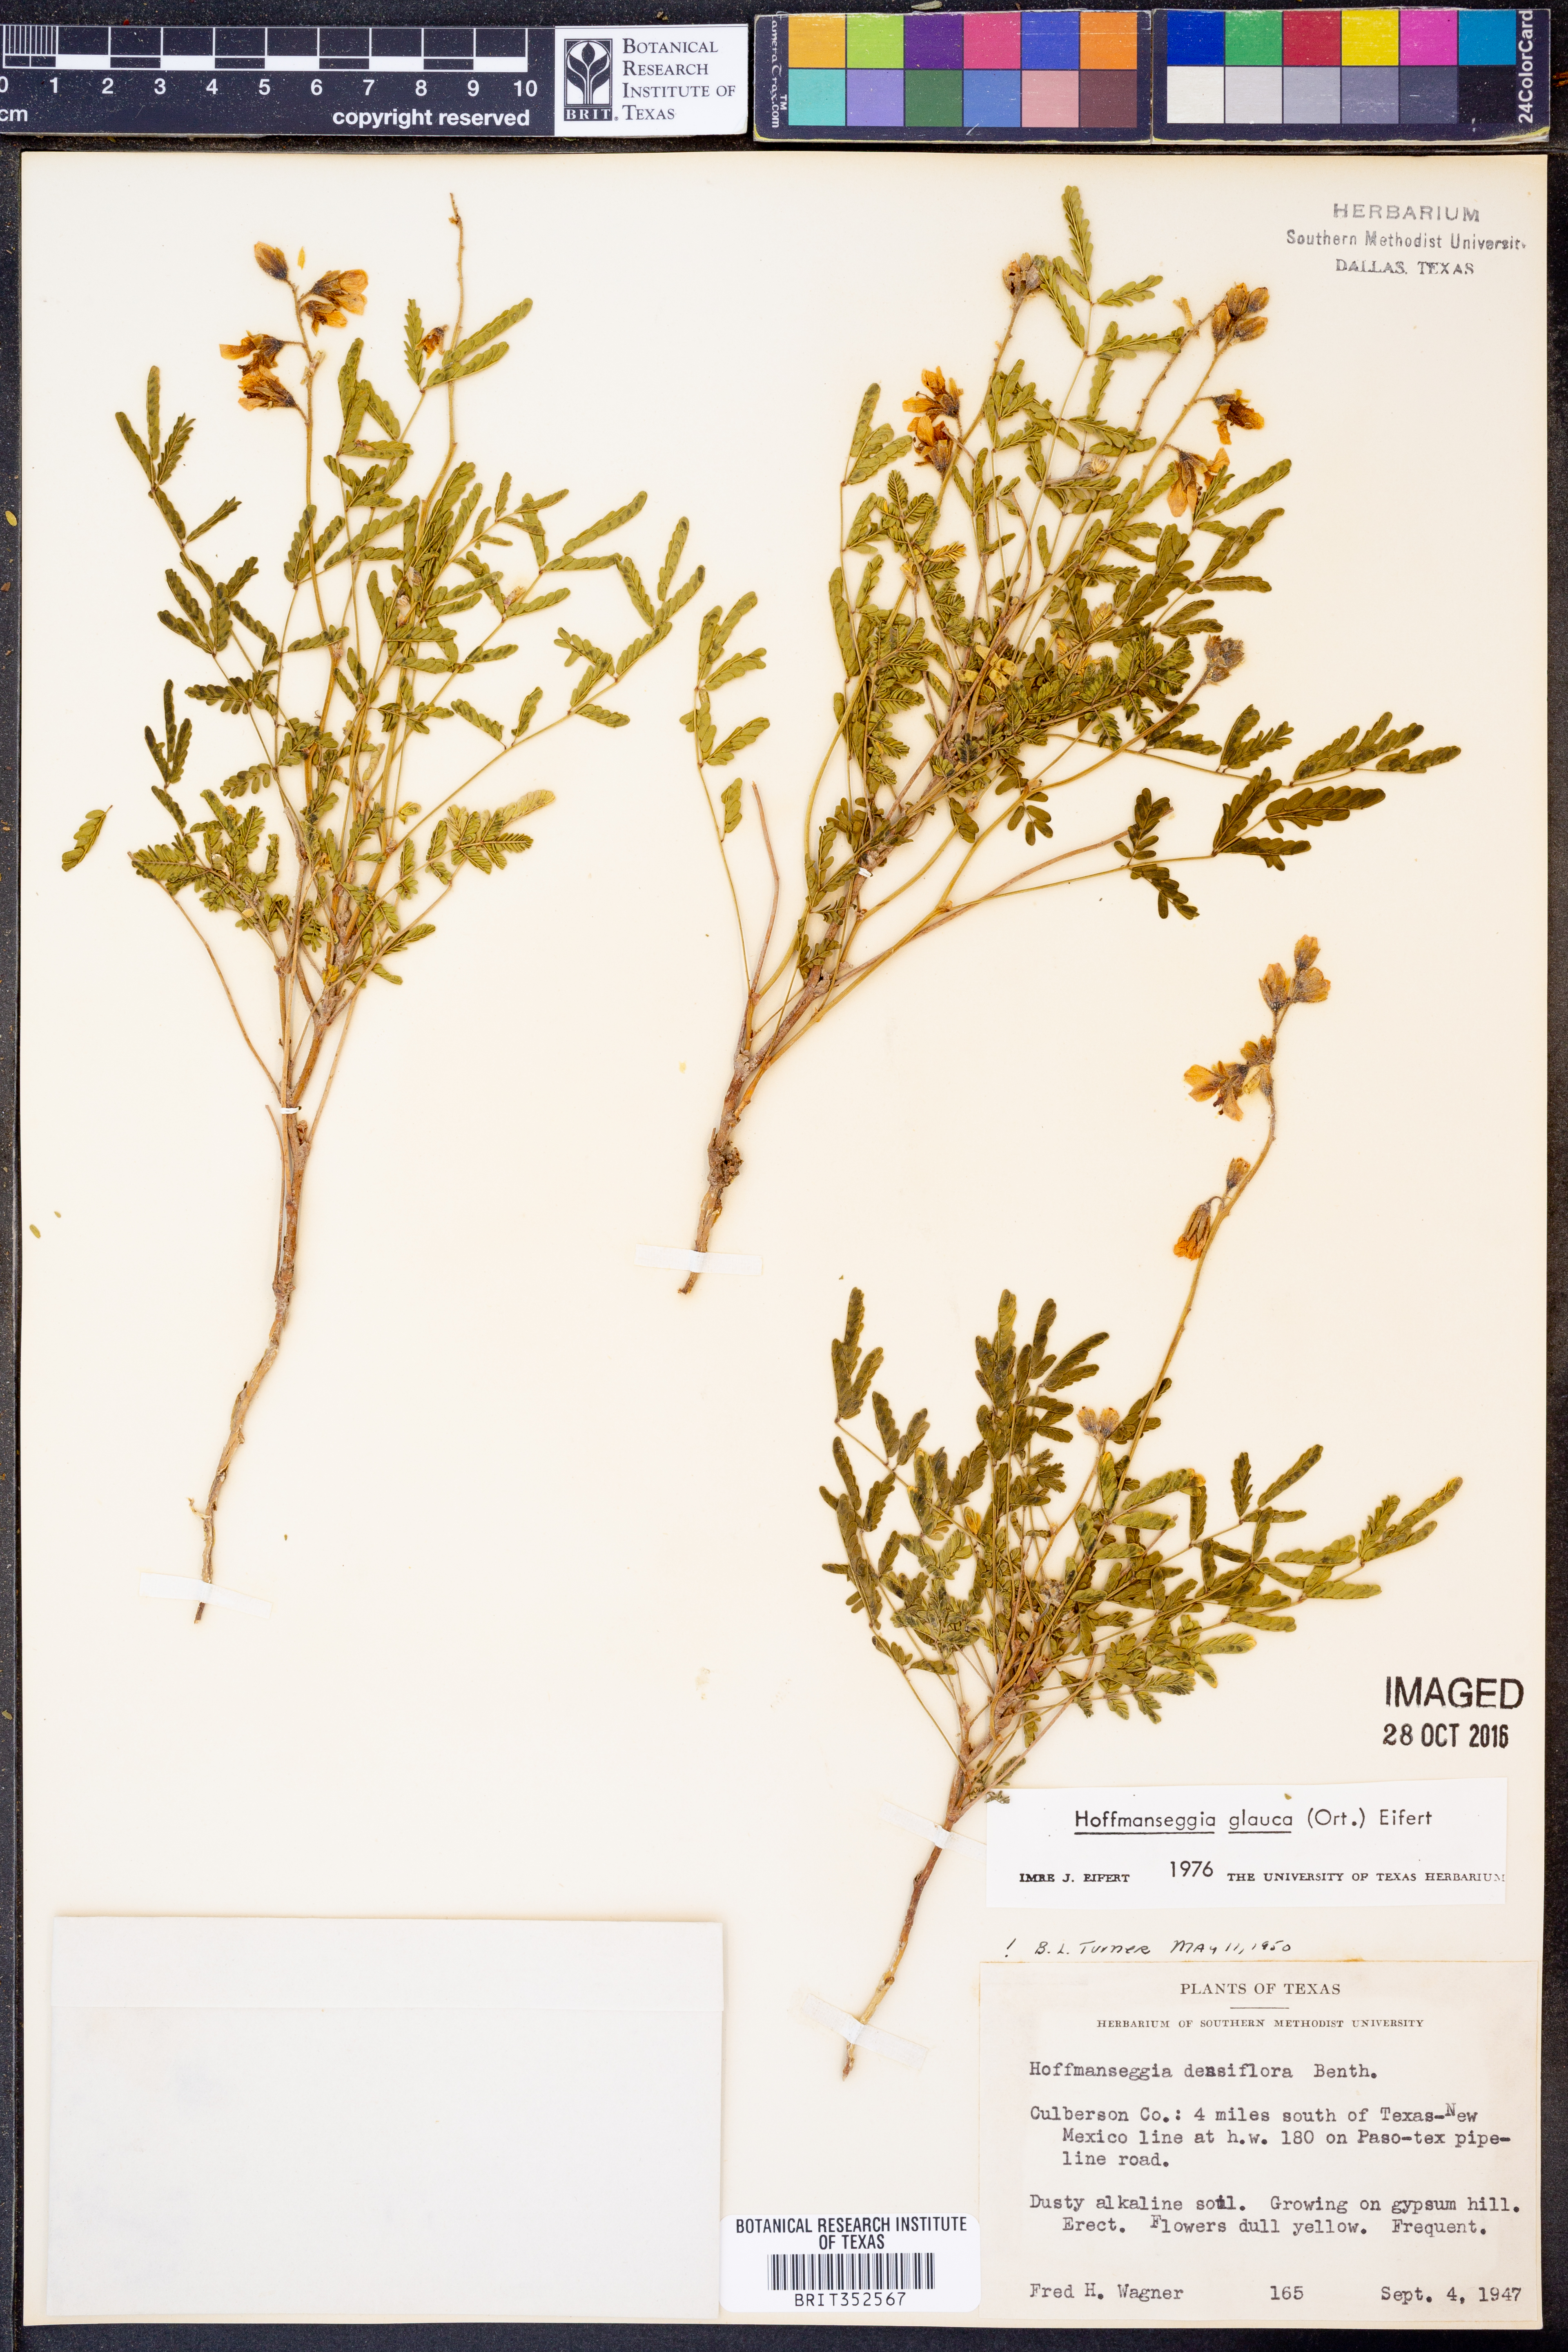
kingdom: Plantae
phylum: Tracheophyta
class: Magnoliopsida
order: Fabales
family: Fabaceae
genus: Hoffmannseggia
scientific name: Hoffmannseggia glauca
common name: Pignut
